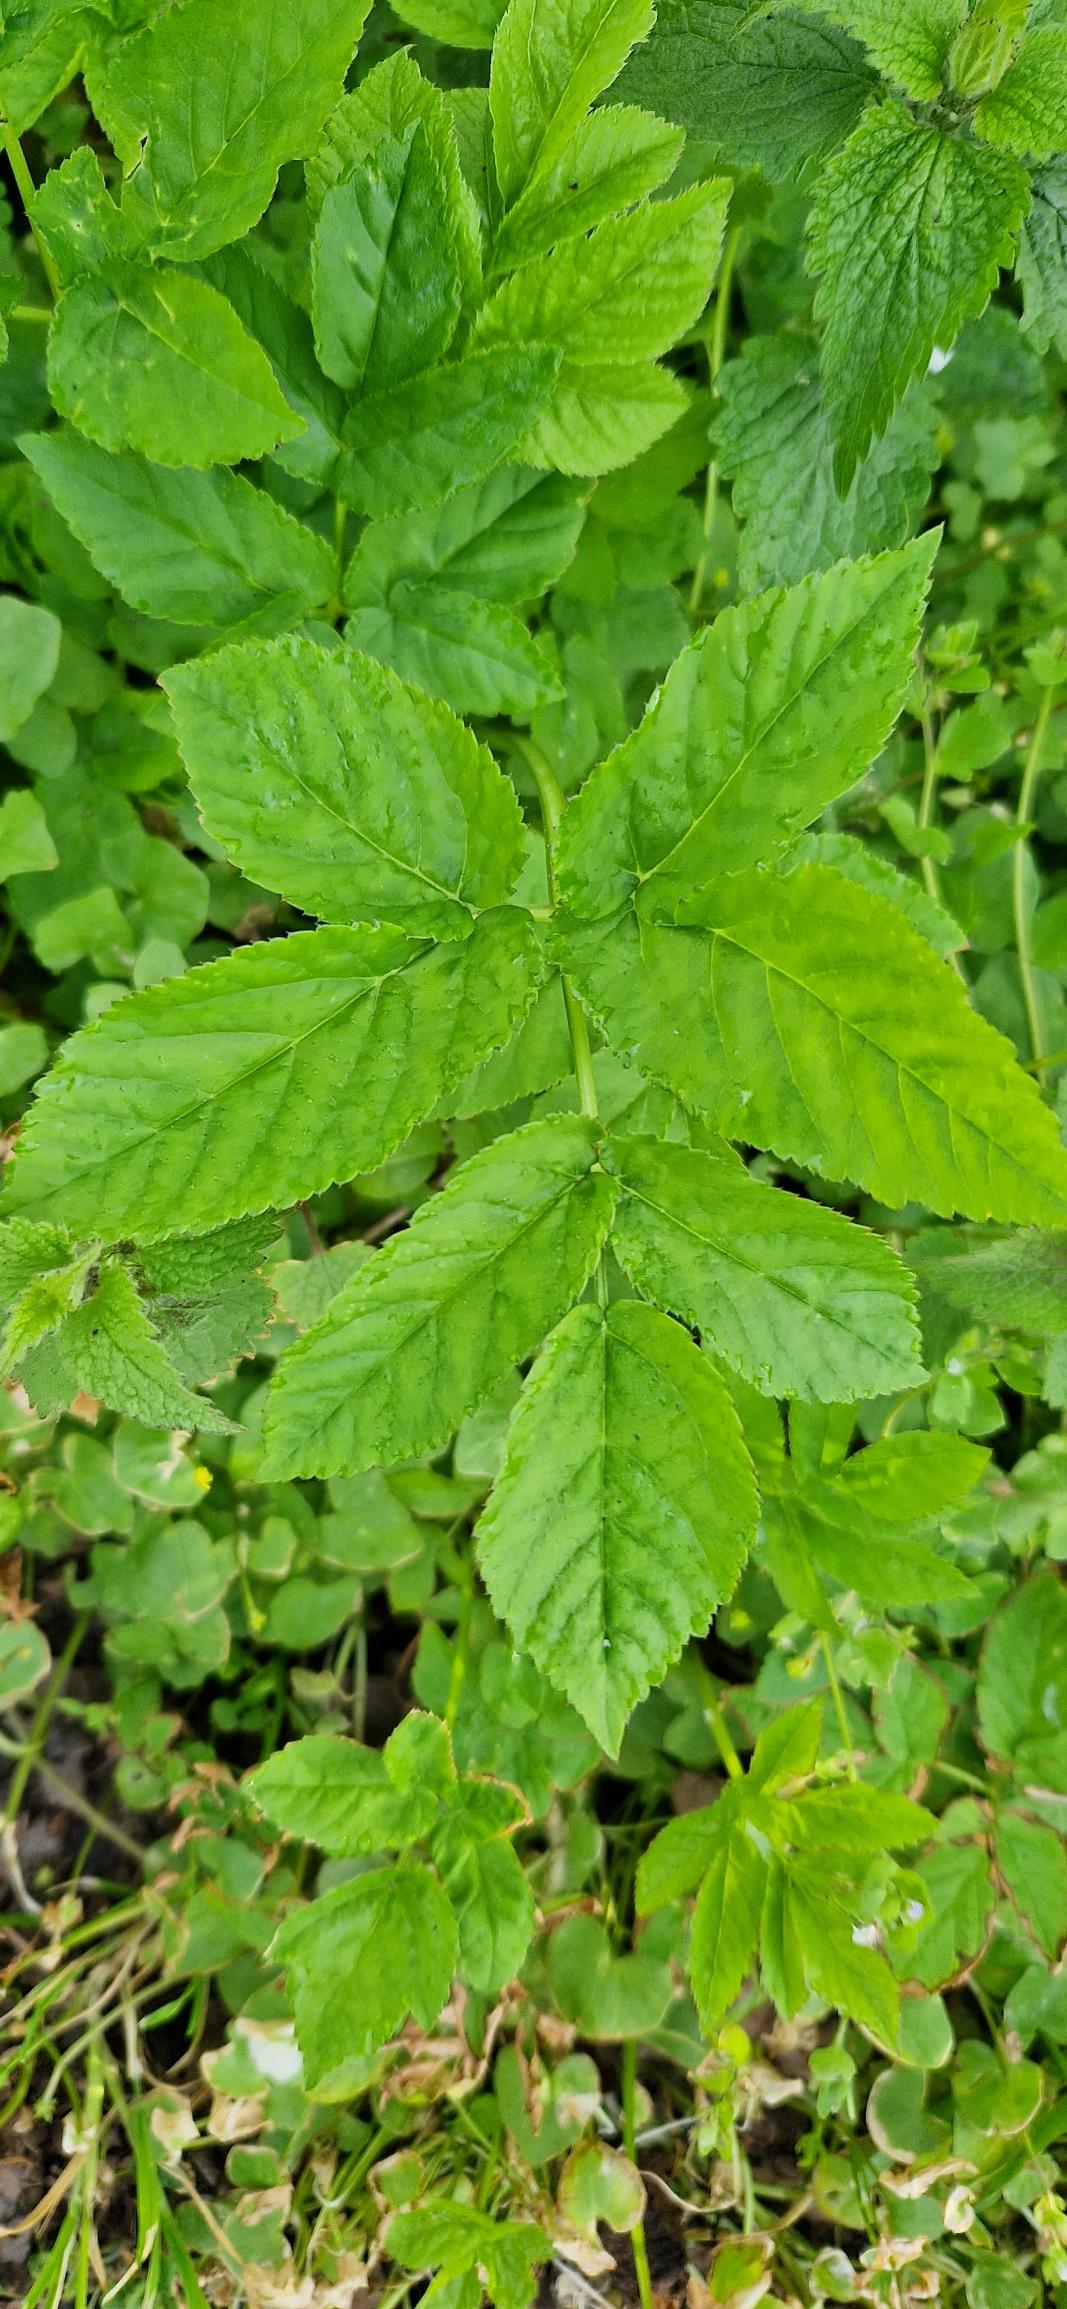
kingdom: Plantae
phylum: Tracheophyta
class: Magnoliopsida
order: Apiales
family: Apiaceae
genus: Aegopodium
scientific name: Aegopodium podagraria
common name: Skvalderkål
